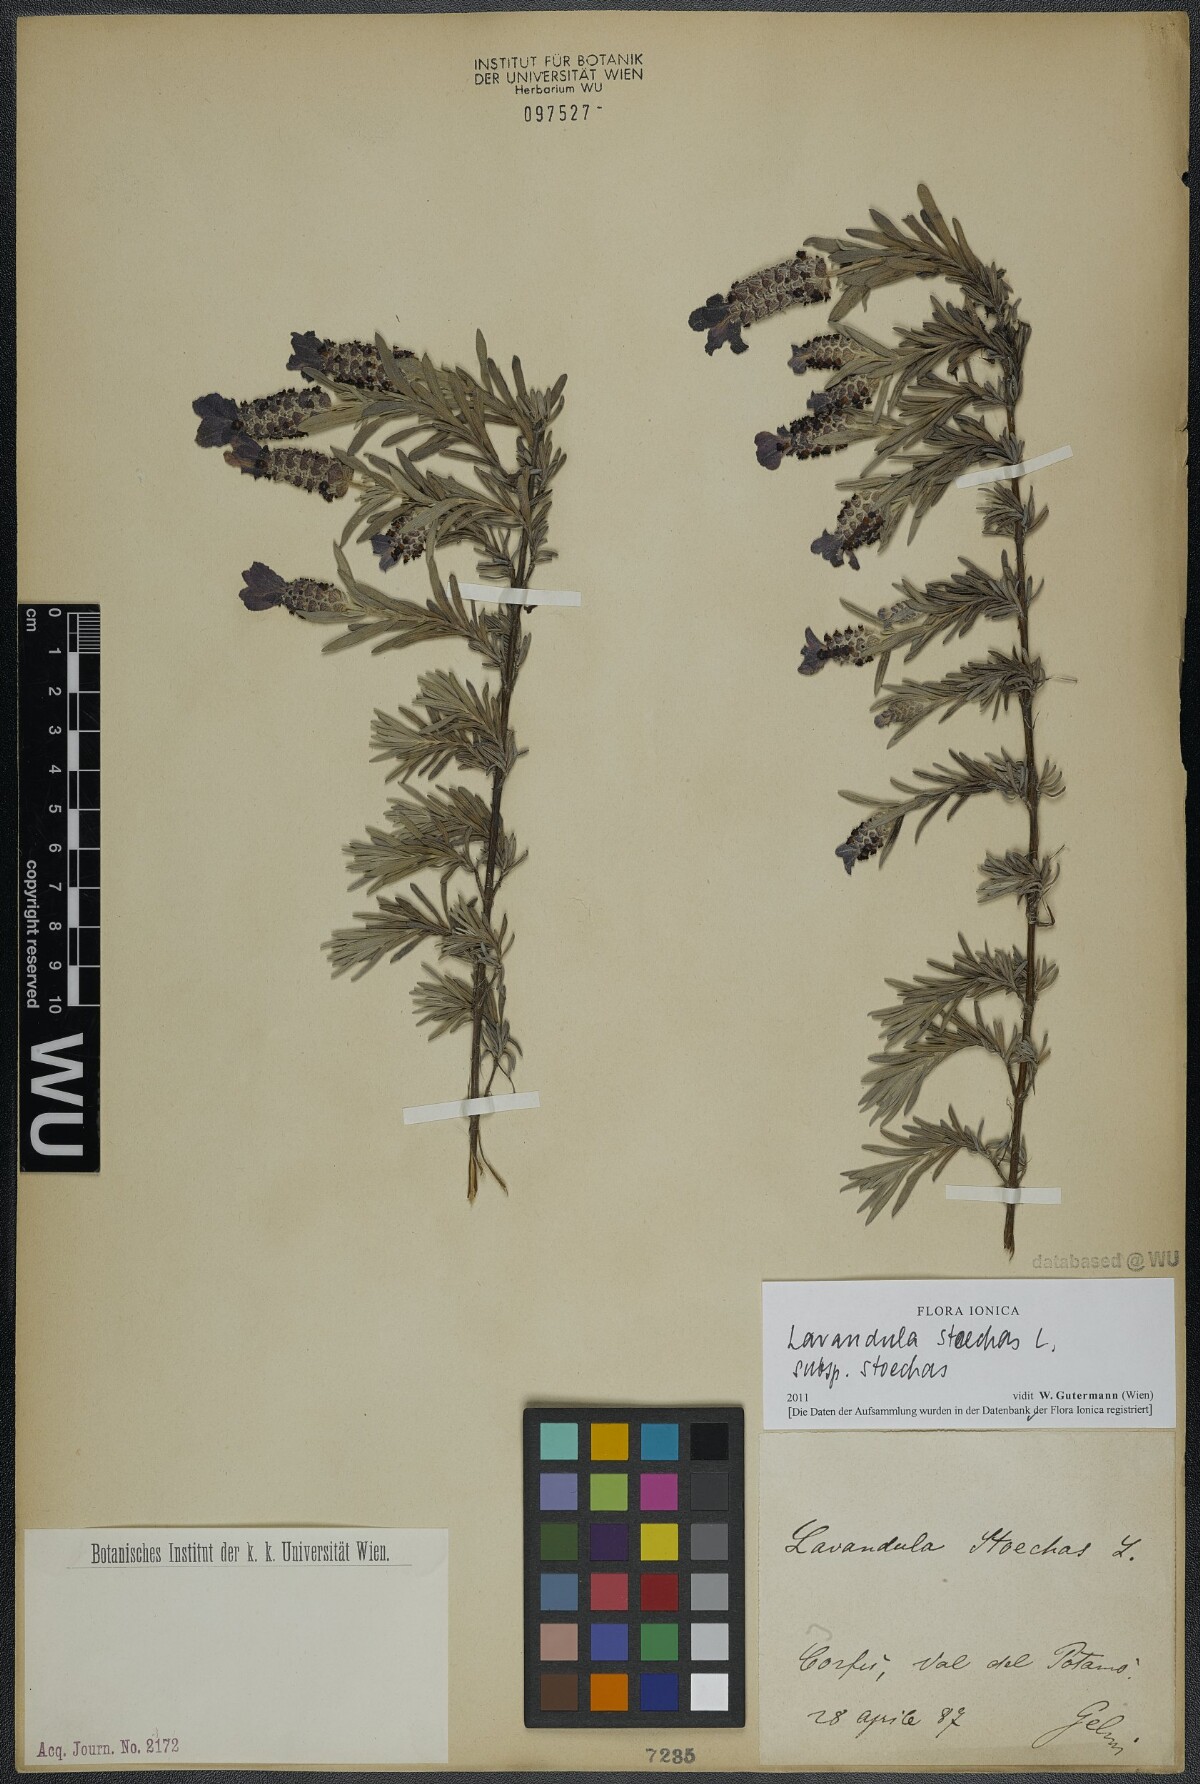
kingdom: Plantae
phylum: Tracheophyta
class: Magnoliopsida
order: Lamiales
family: Lamiaceae
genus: Lavandula
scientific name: Lavandula stoechas
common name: French lavender
